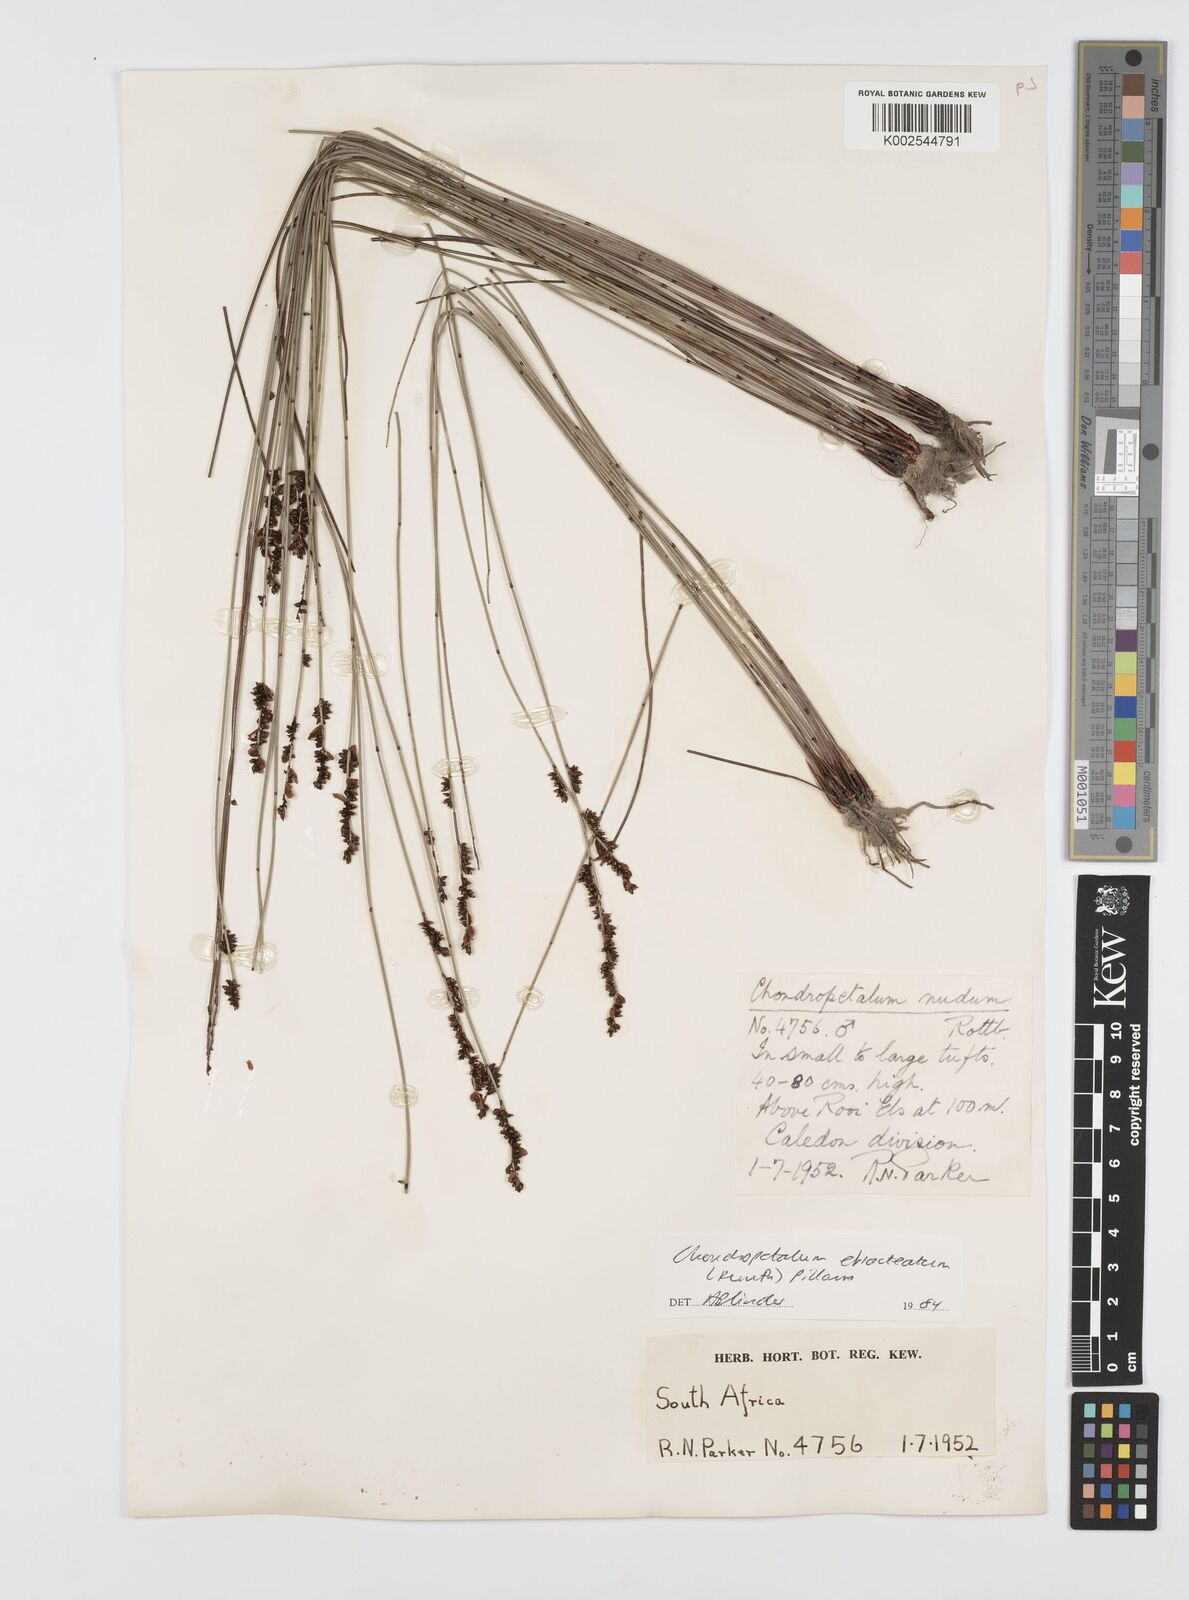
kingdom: Plantae
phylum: Tracheophyta
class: Liliopsida
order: Poales
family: Restionaceae
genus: Elegia
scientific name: Elegia hookeriana
